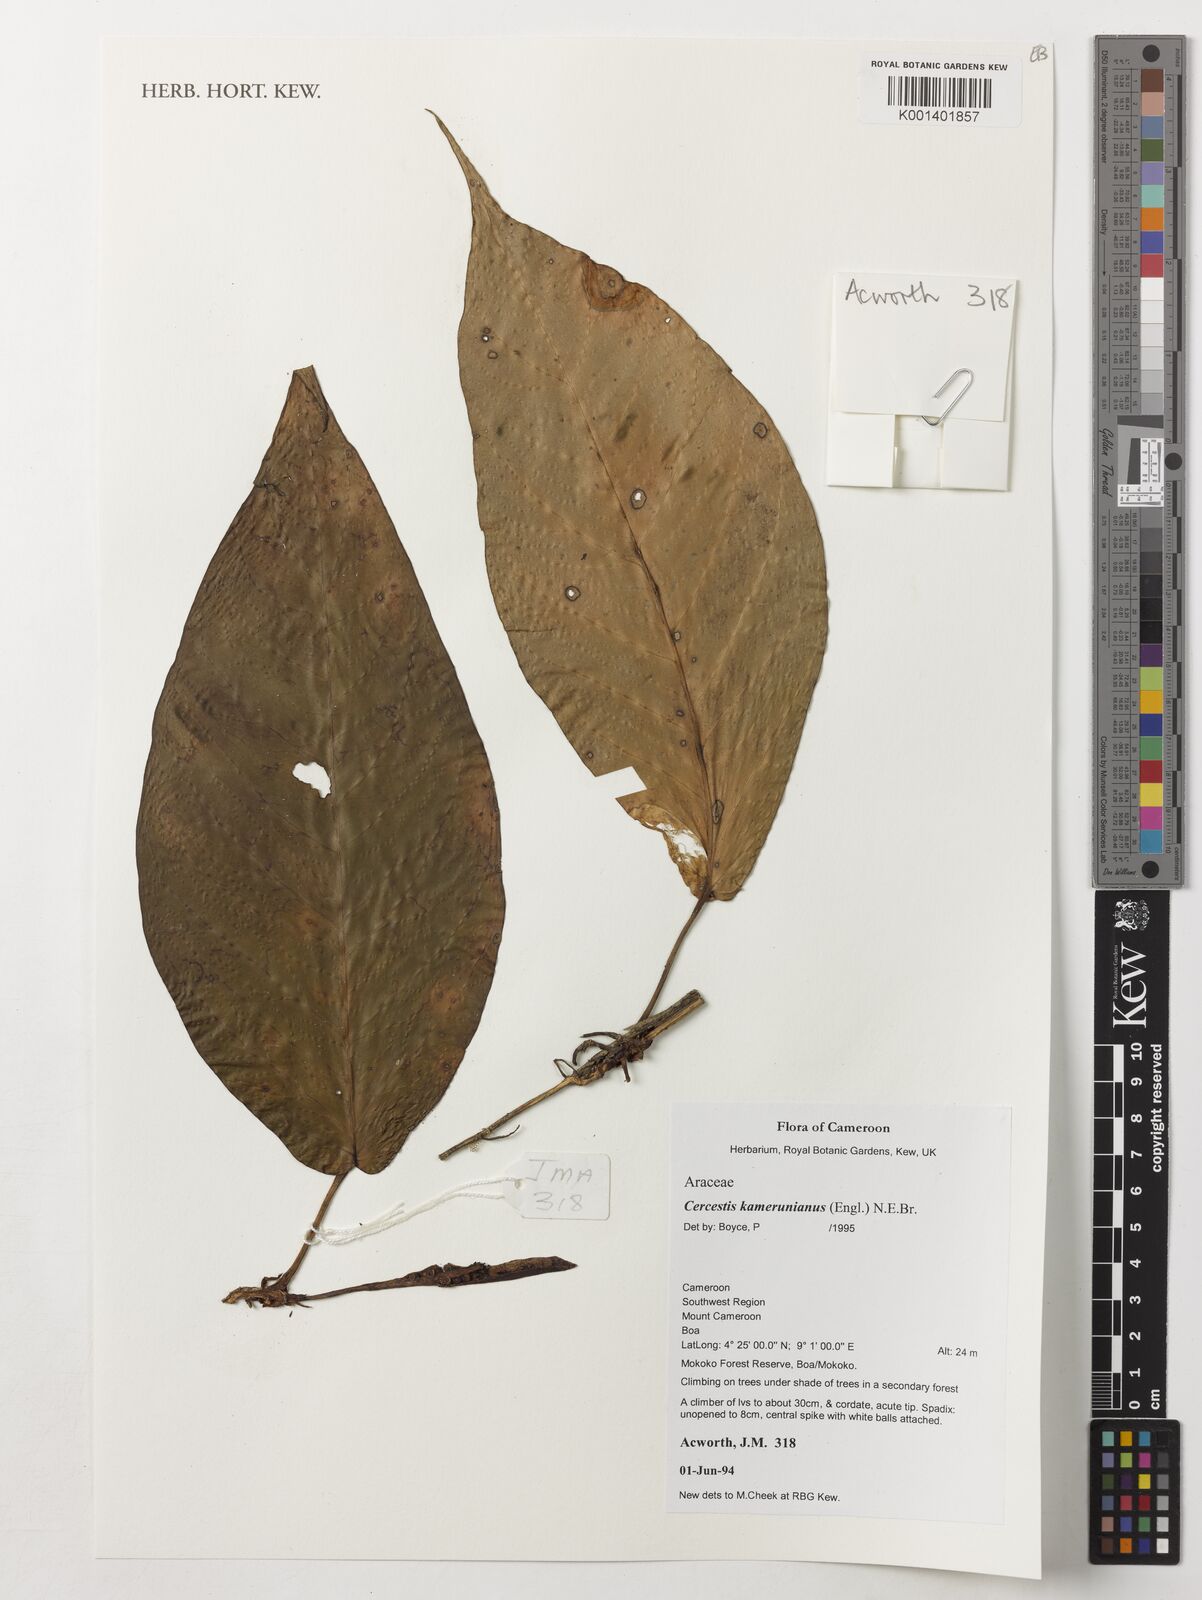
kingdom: Plantae
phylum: Tracheophyta
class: Liliopsida
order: Alismatales
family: Araceae
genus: Cercestis
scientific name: Cercestis kamerunianus
